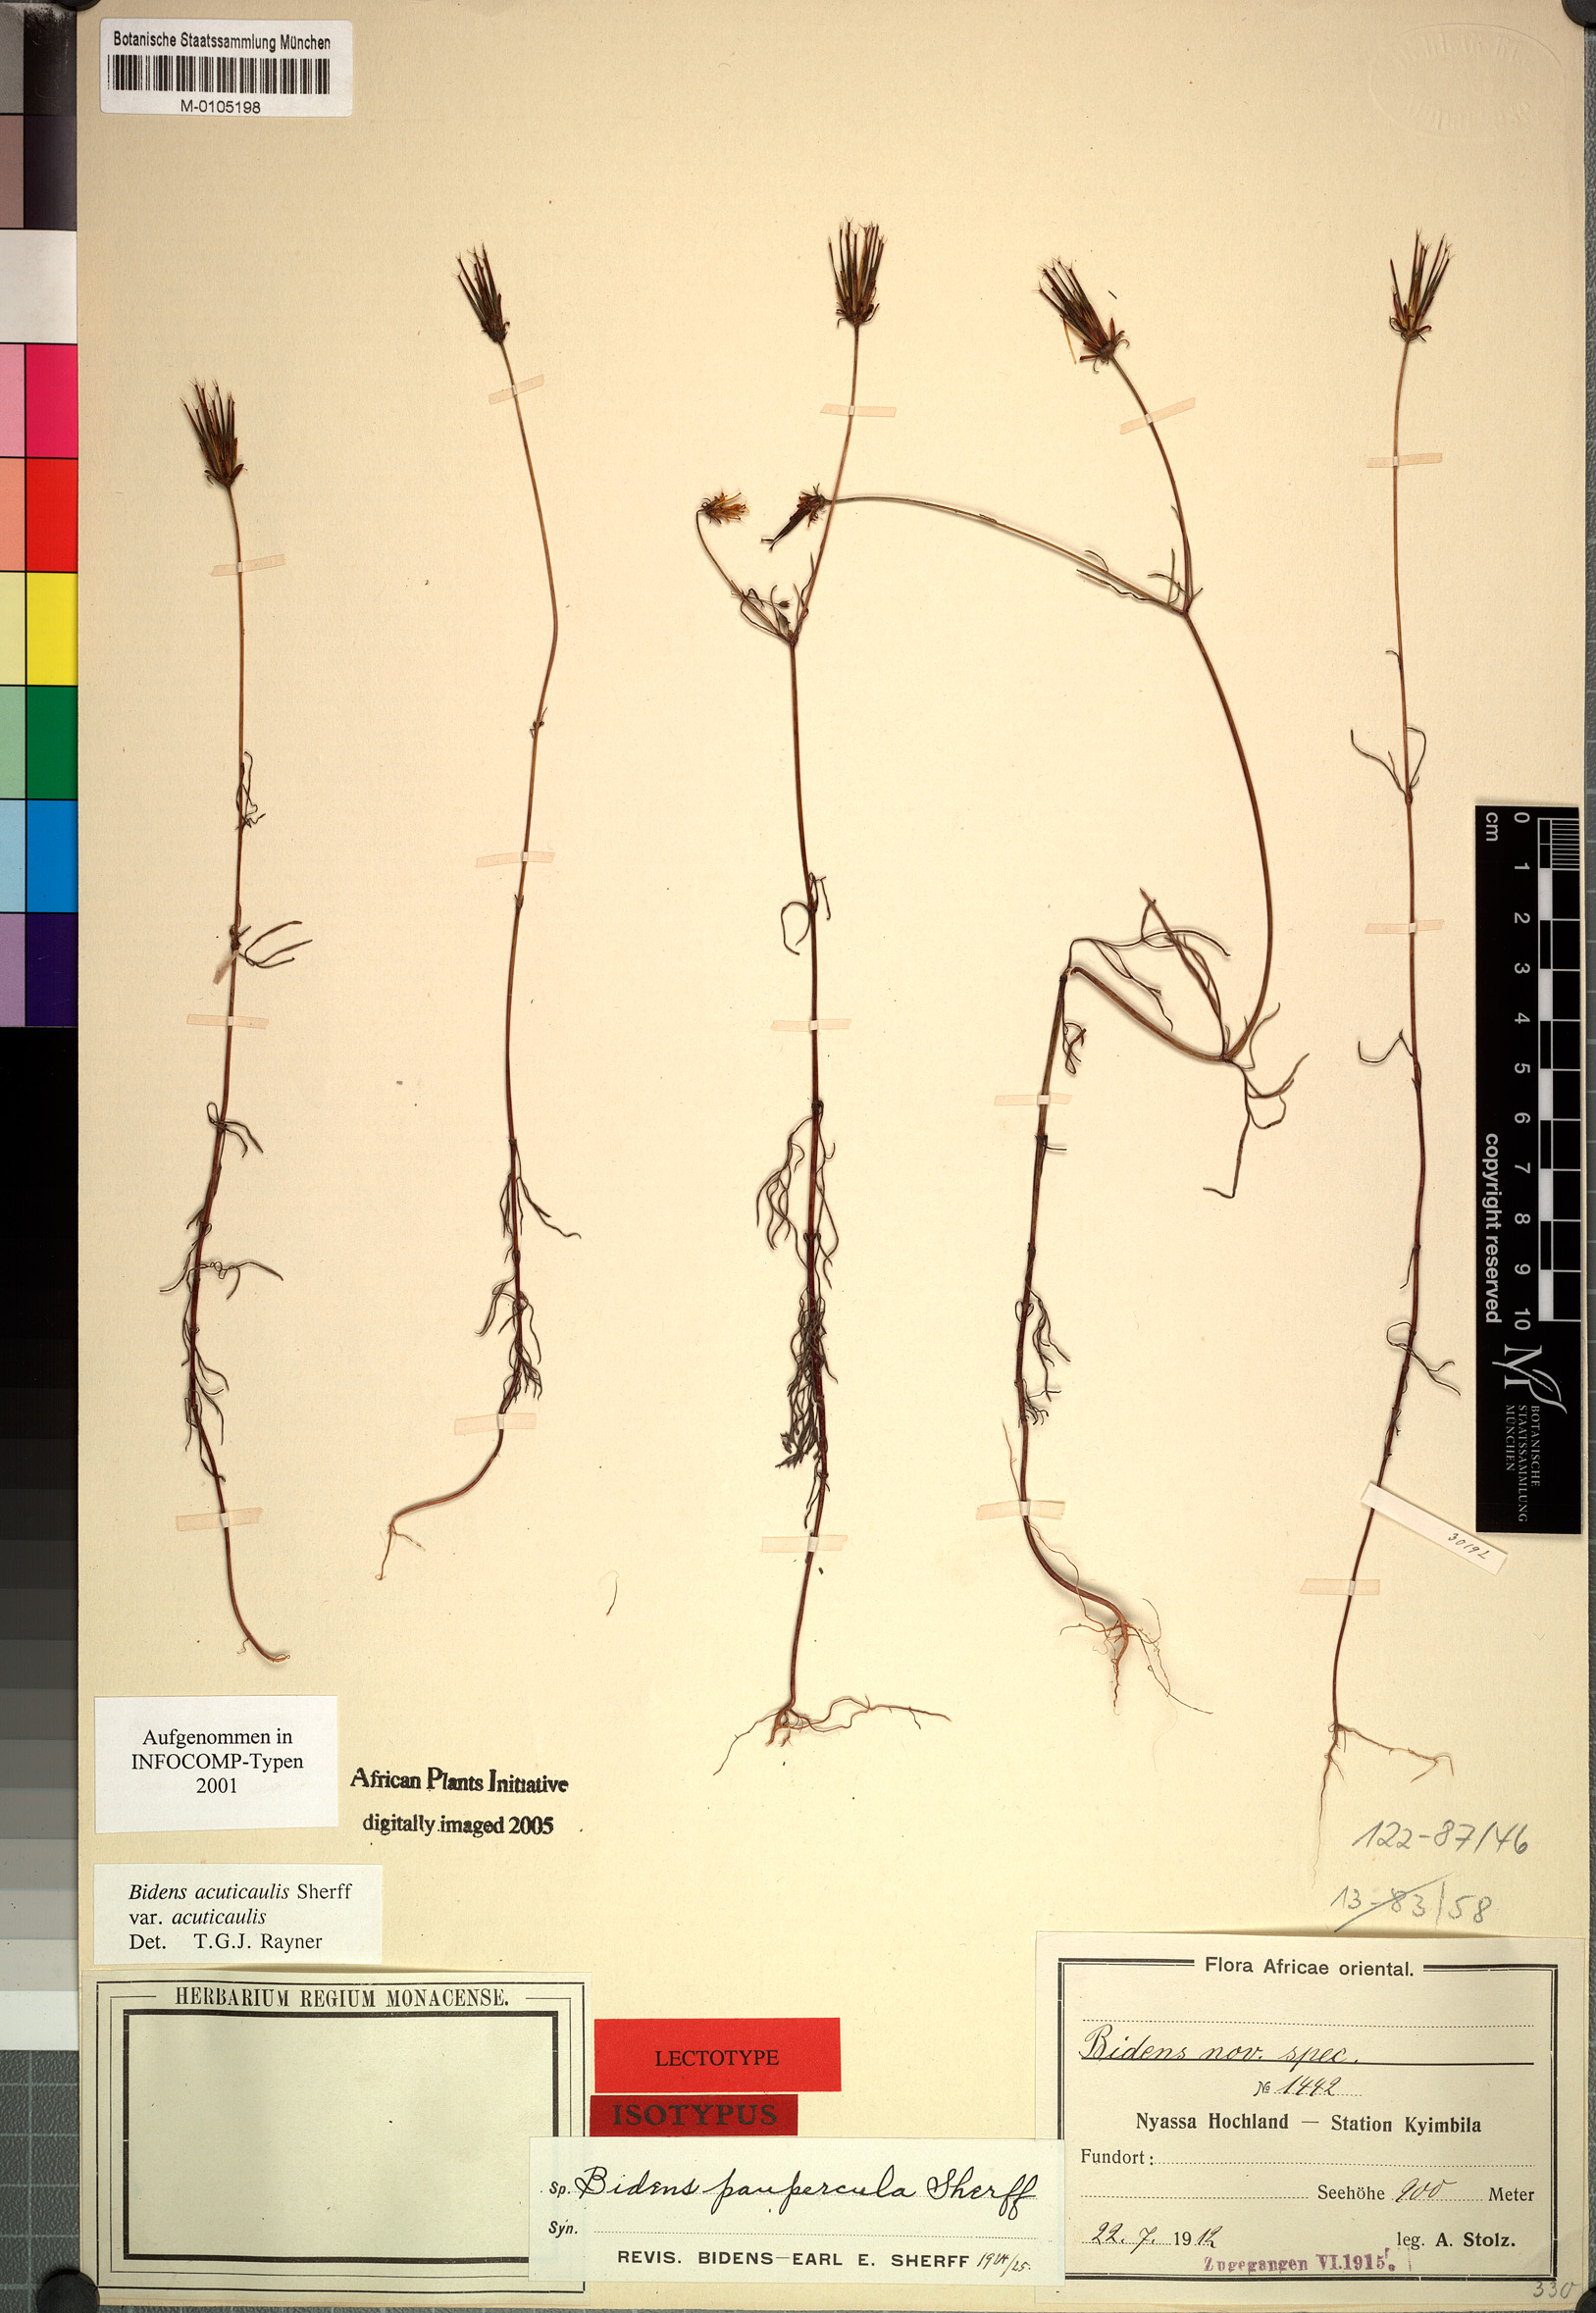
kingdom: Plantae
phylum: Tracheophyta
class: Magnoliopsida
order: Asterales
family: Asteraceae
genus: Bidens
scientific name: Bidens acuticaulis
